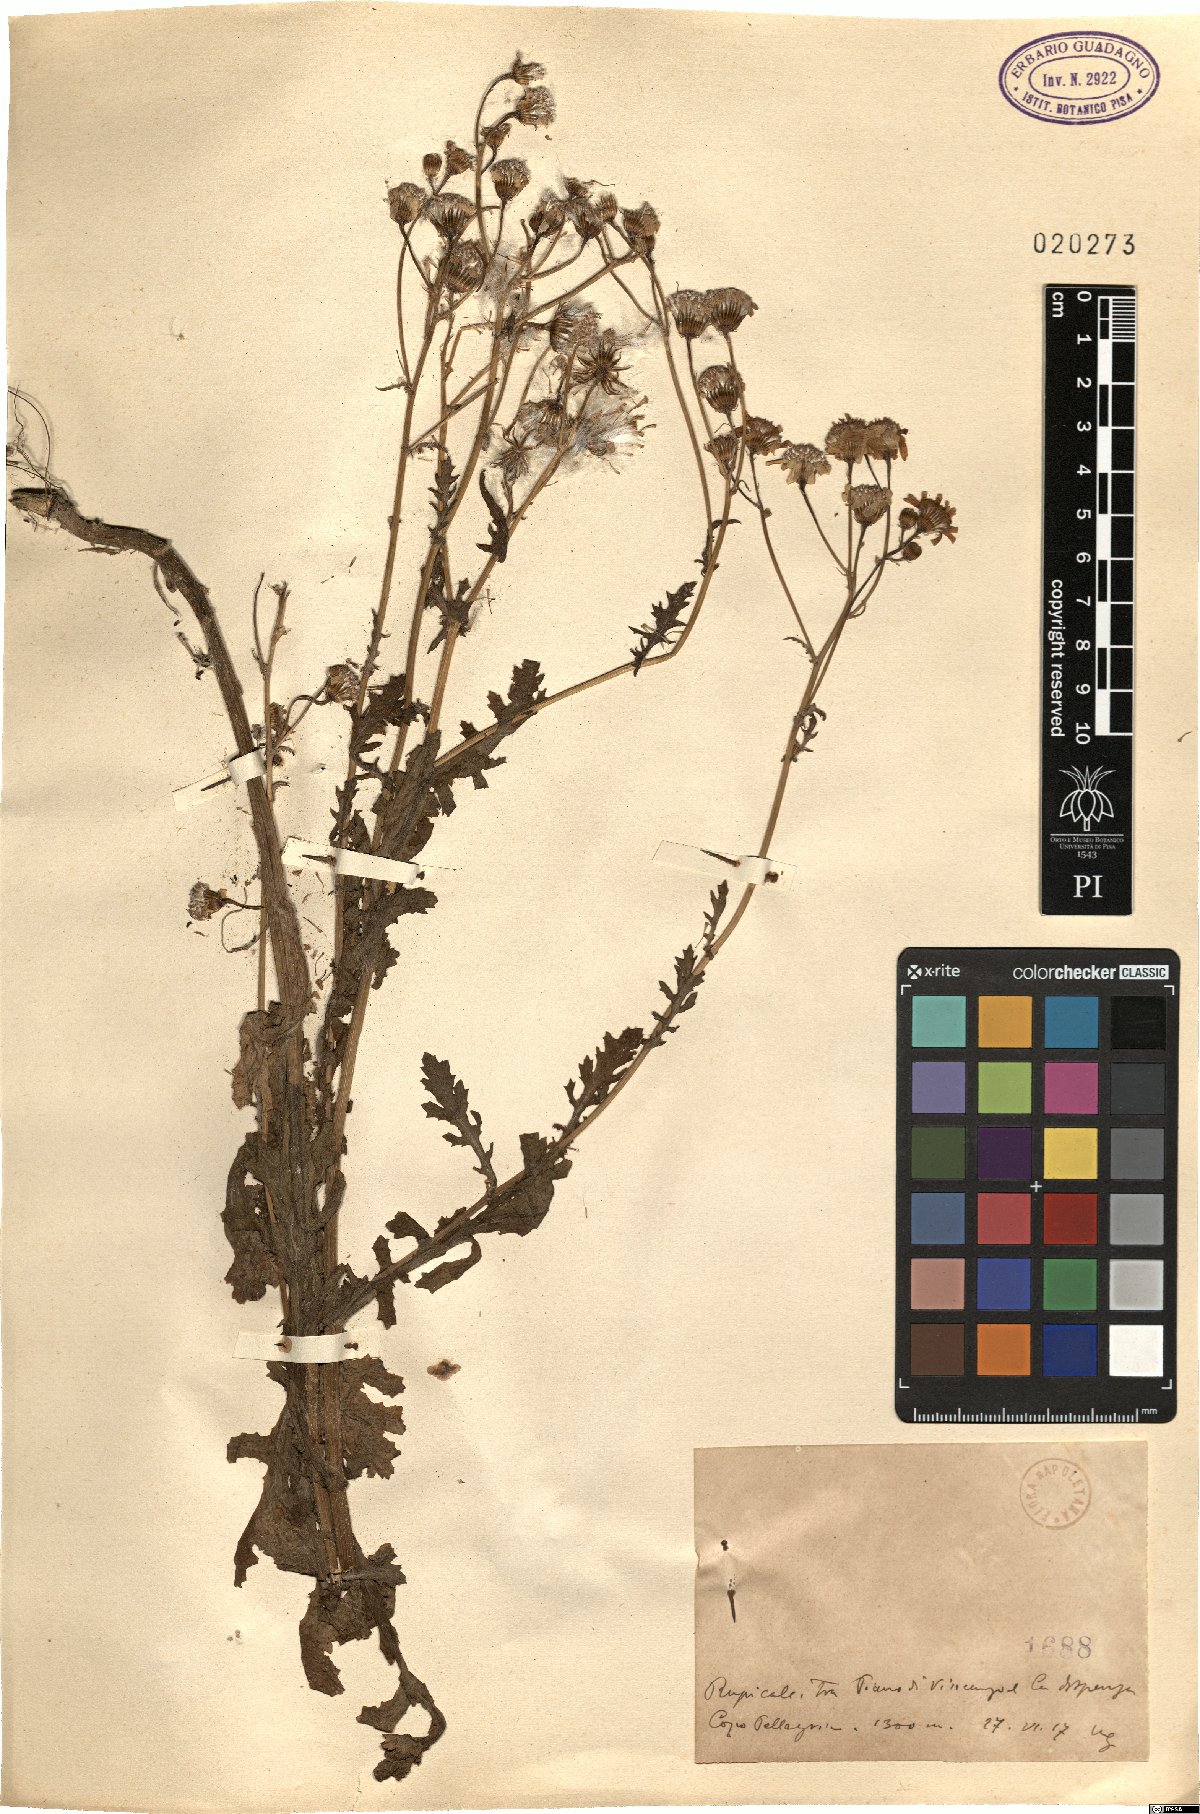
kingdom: Plantae
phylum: Tracheophyta
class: Magnoliopsida
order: Asterales
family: Asteraceae
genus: Senecio
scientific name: Senecio
